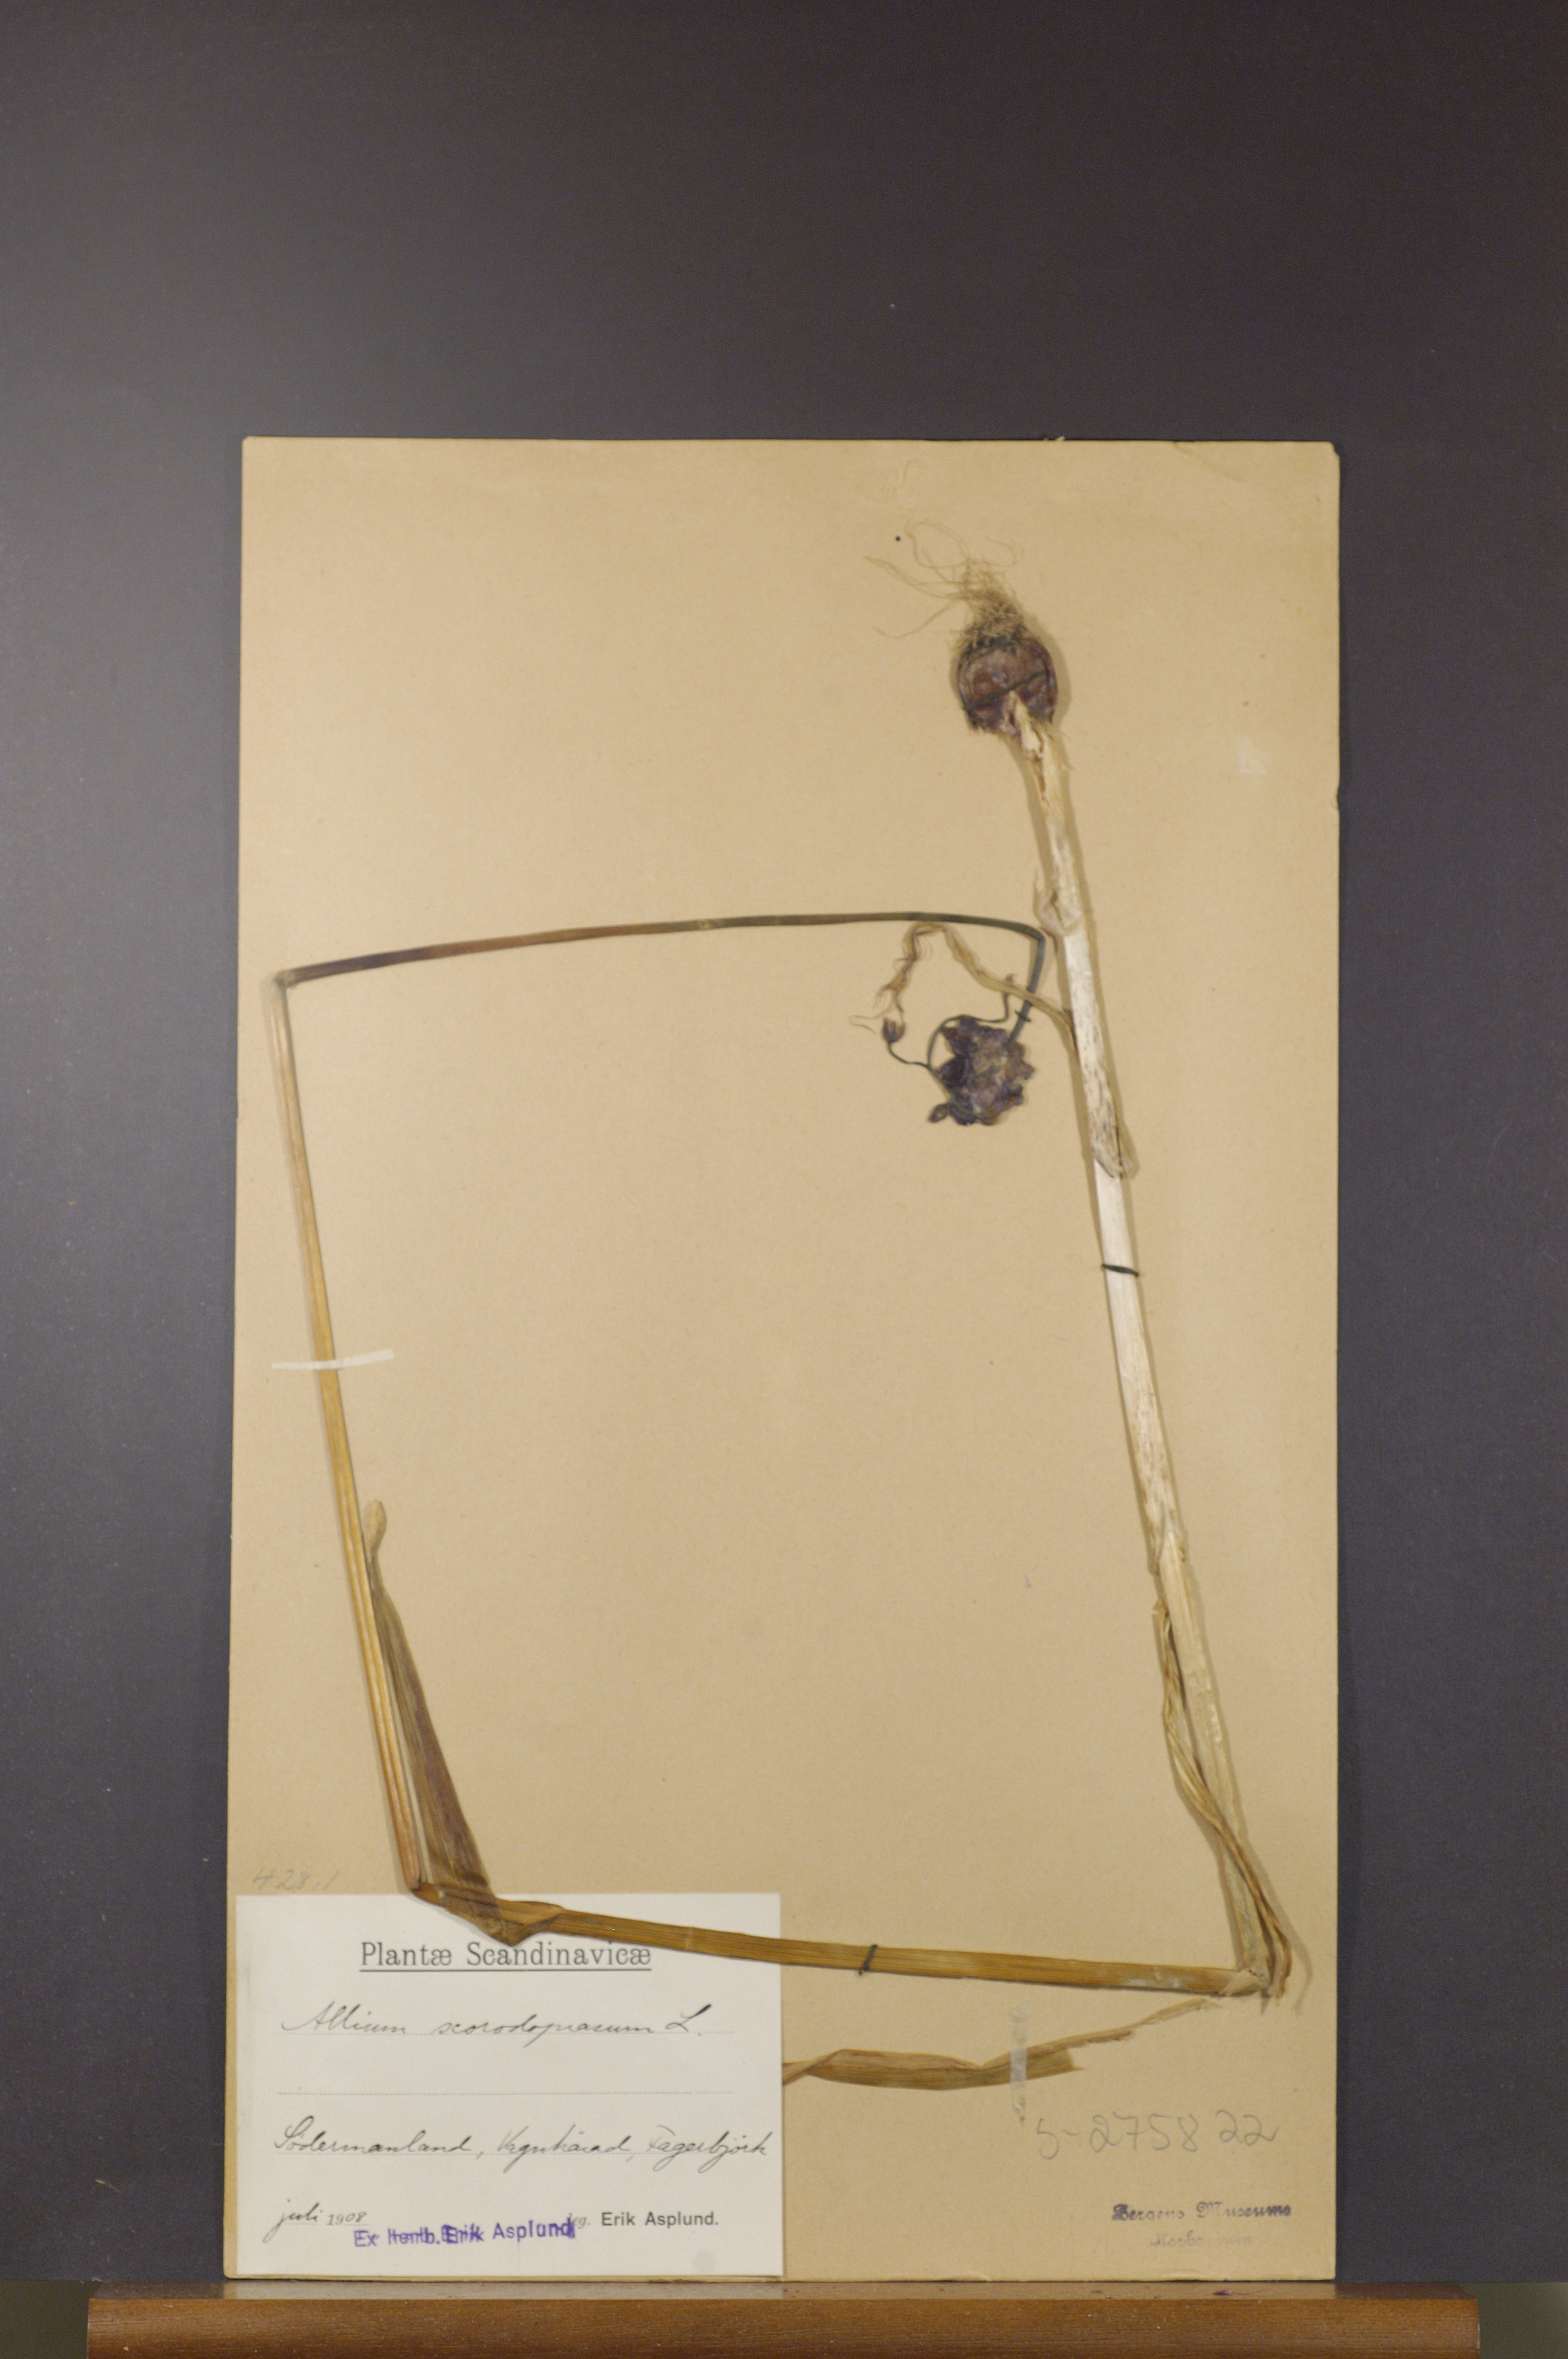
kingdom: Plantae
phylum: Tracheophyta
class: Liliopsida
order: Asparagales
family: Amaryllidaceae
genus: Allium
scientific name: Allium scorodoprasum
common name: Sand leek
